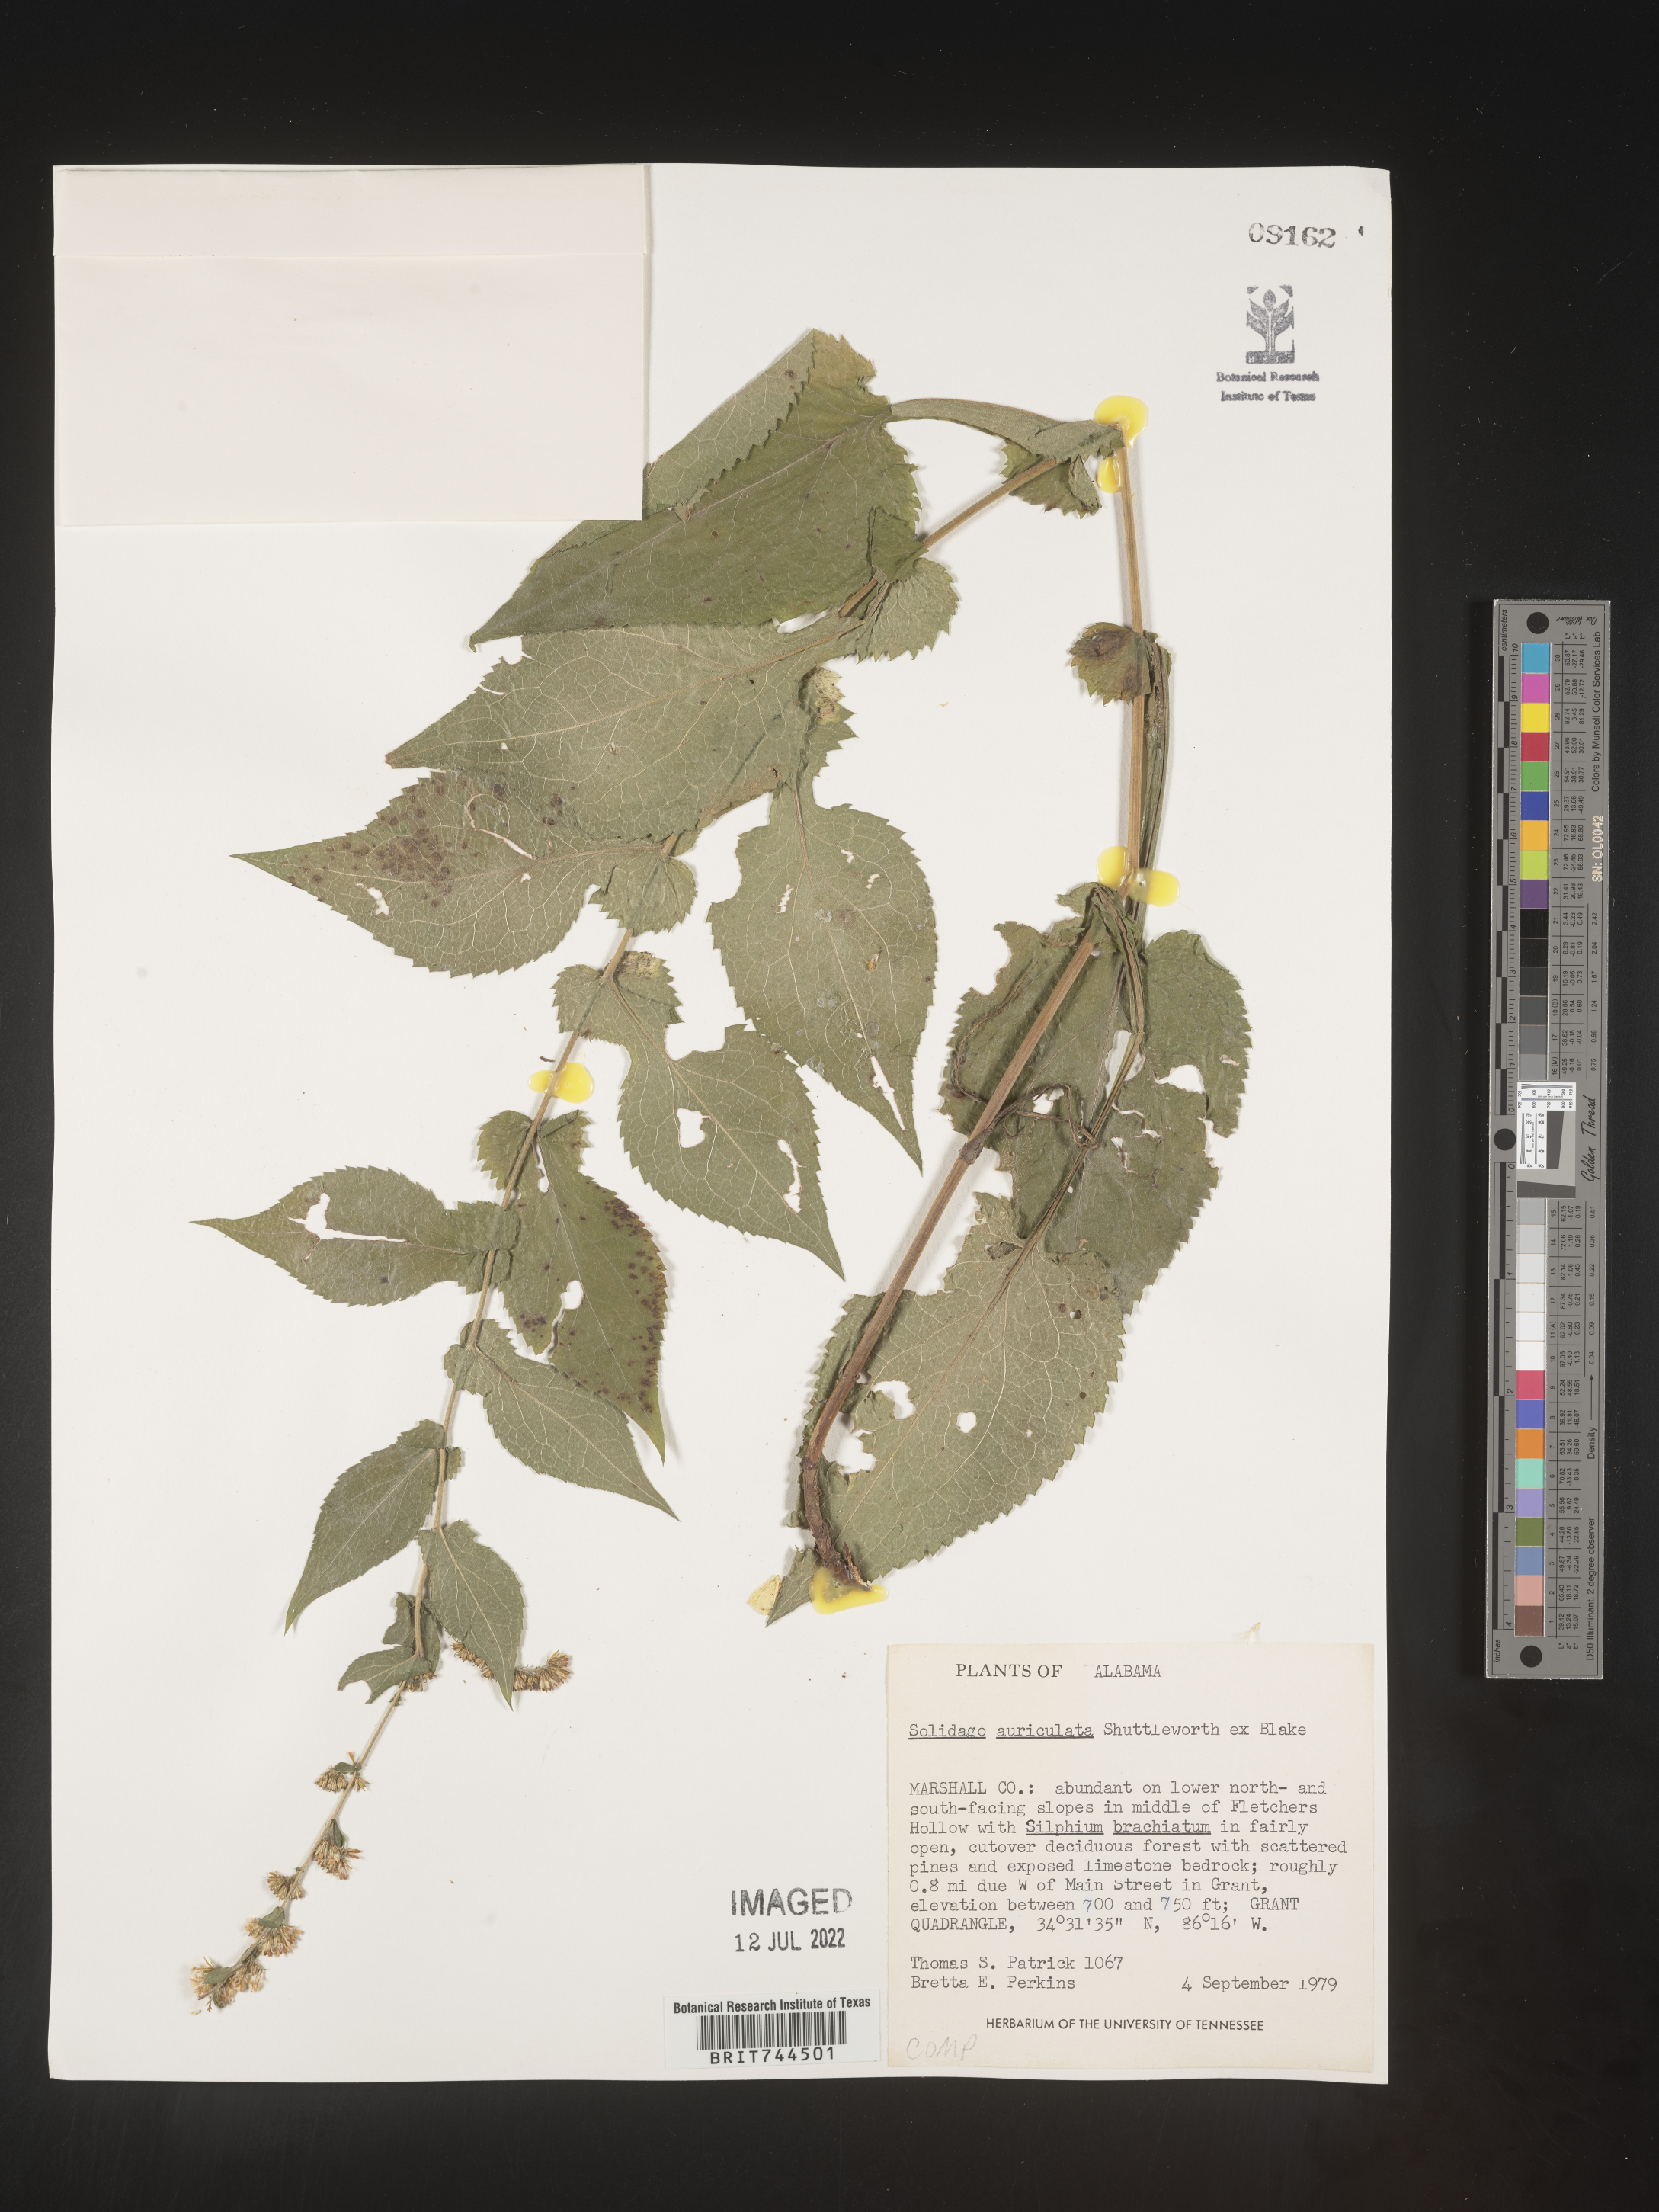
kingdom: Plantae
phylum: Tracheophyta
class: Magnoliopsida
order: Asterales
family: Asteraceae
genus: Solidago
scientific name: Solidago auriculata
